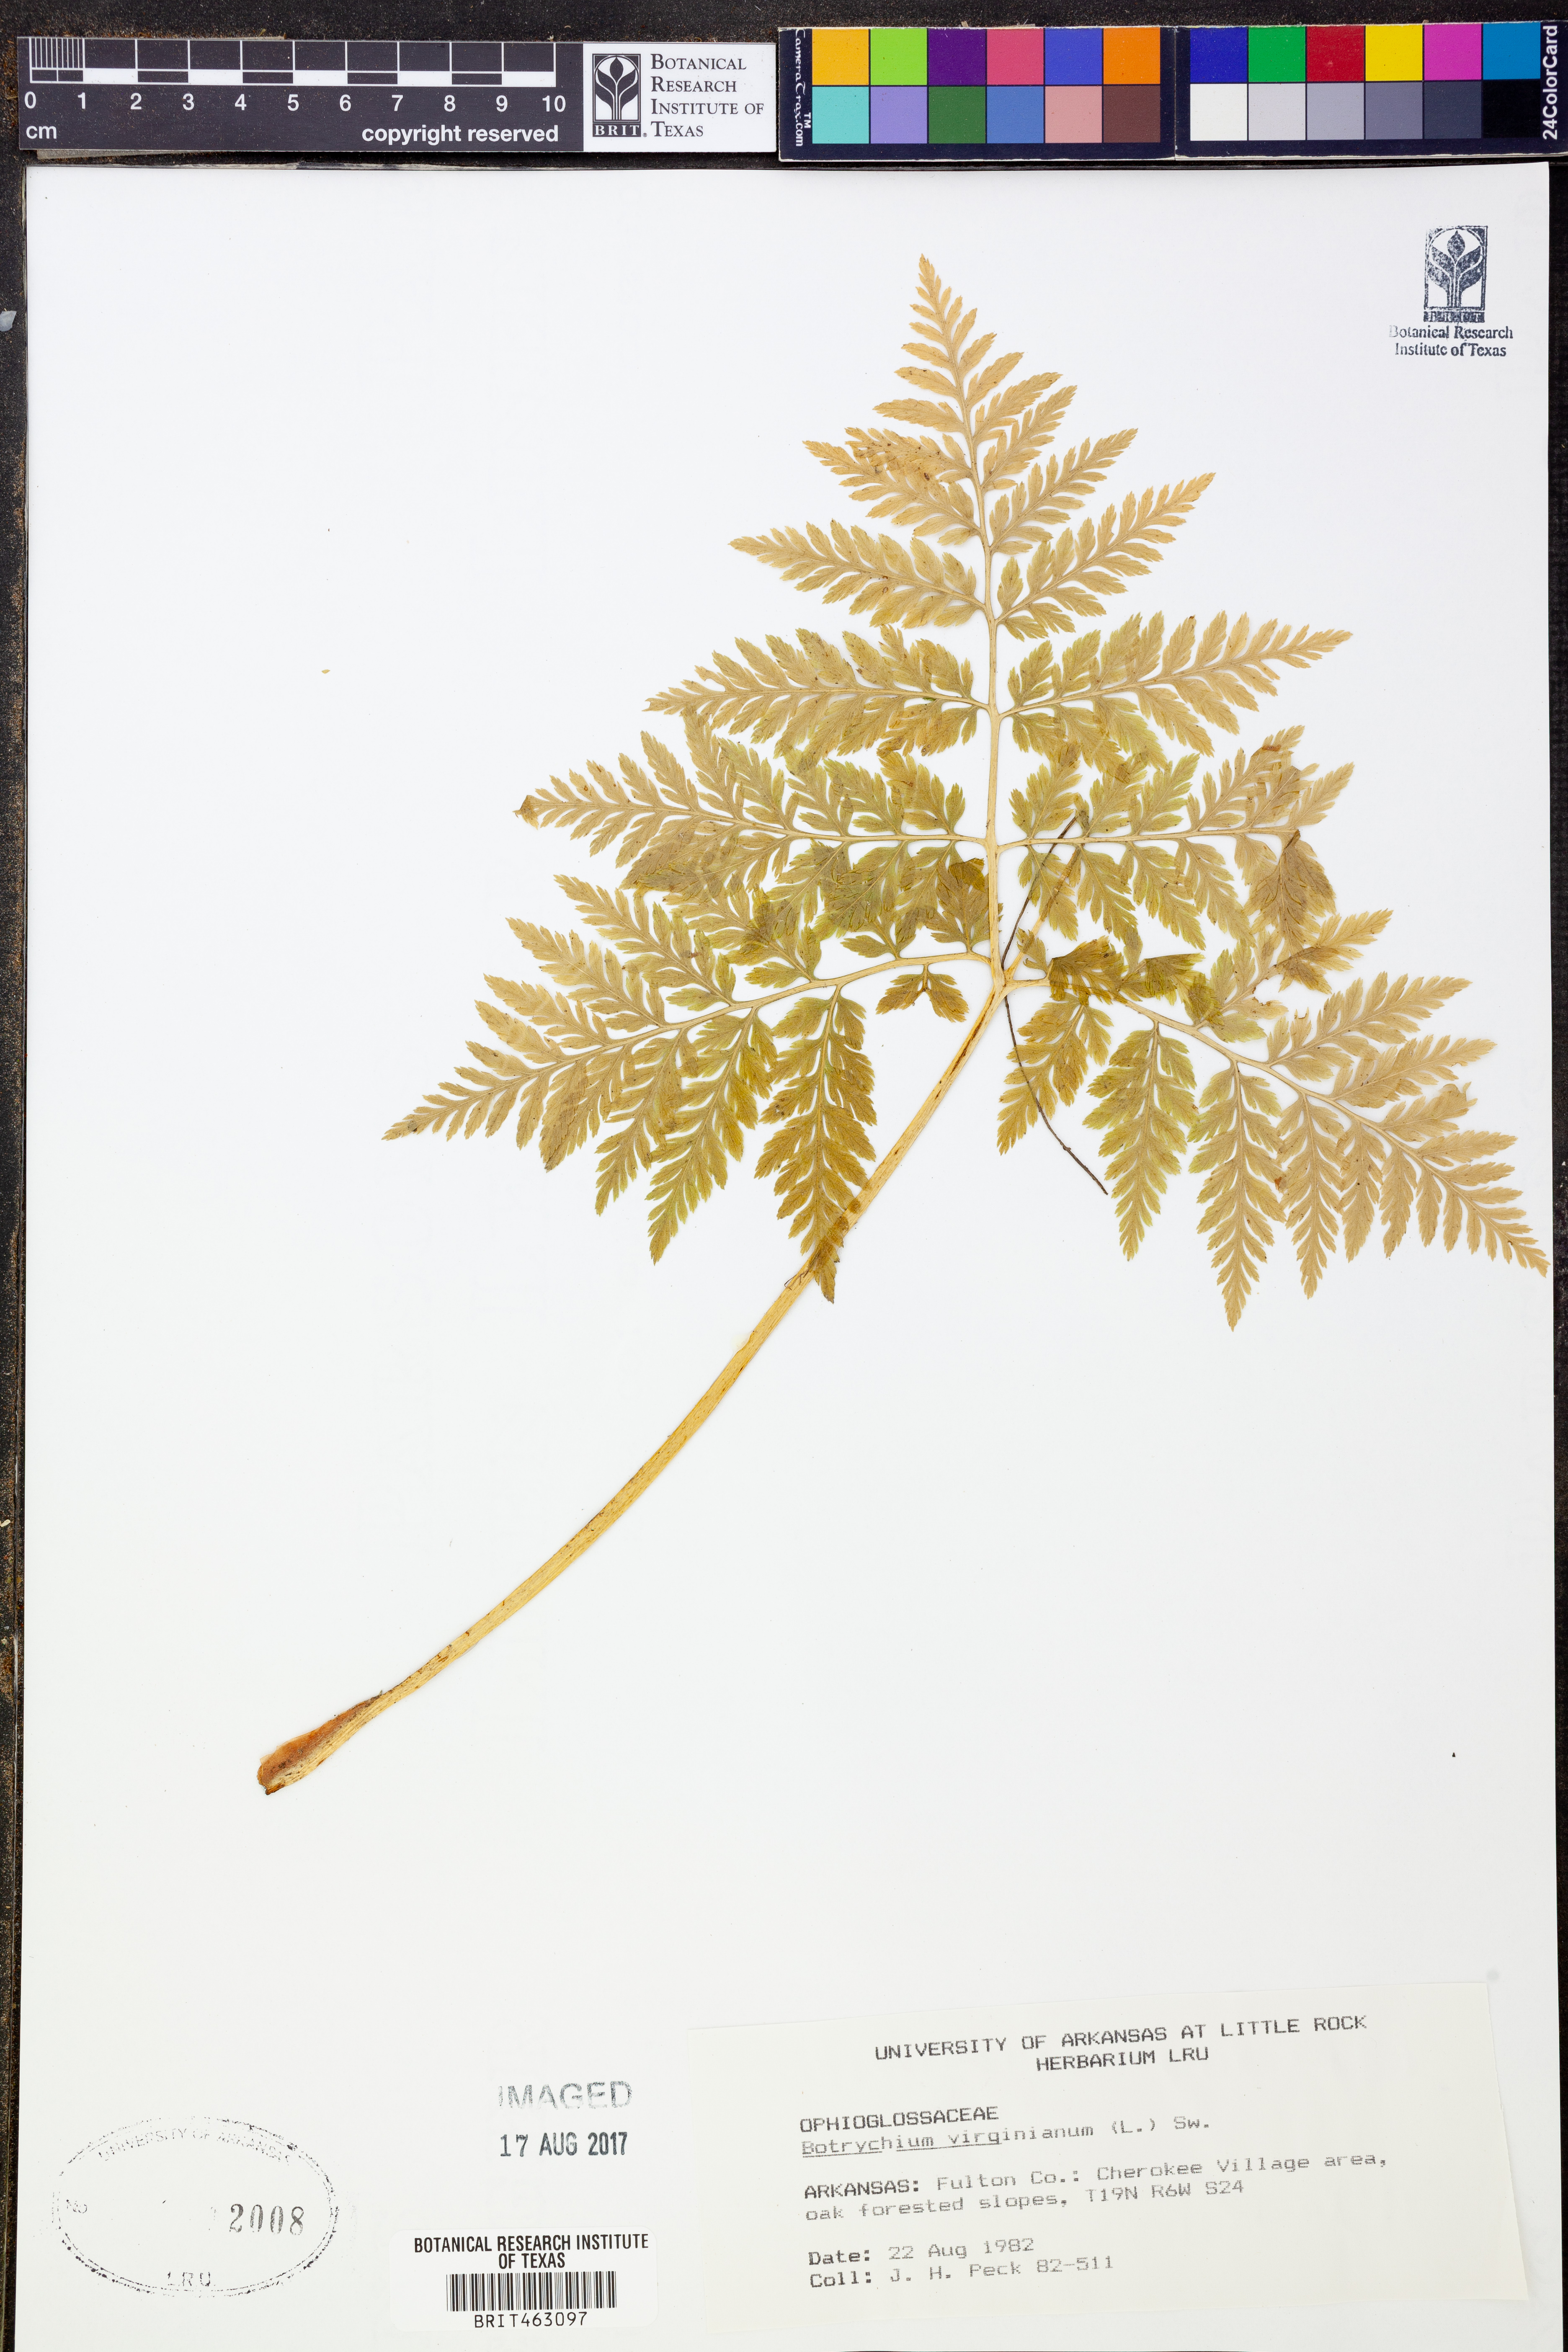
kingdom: Plantae
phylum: Tracheophyta
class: Polypodiopsida
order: Ophioglossales
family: Ophioglossaceae
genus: Botrypus
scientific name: Botrypus virginianus
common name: Common grapefern
